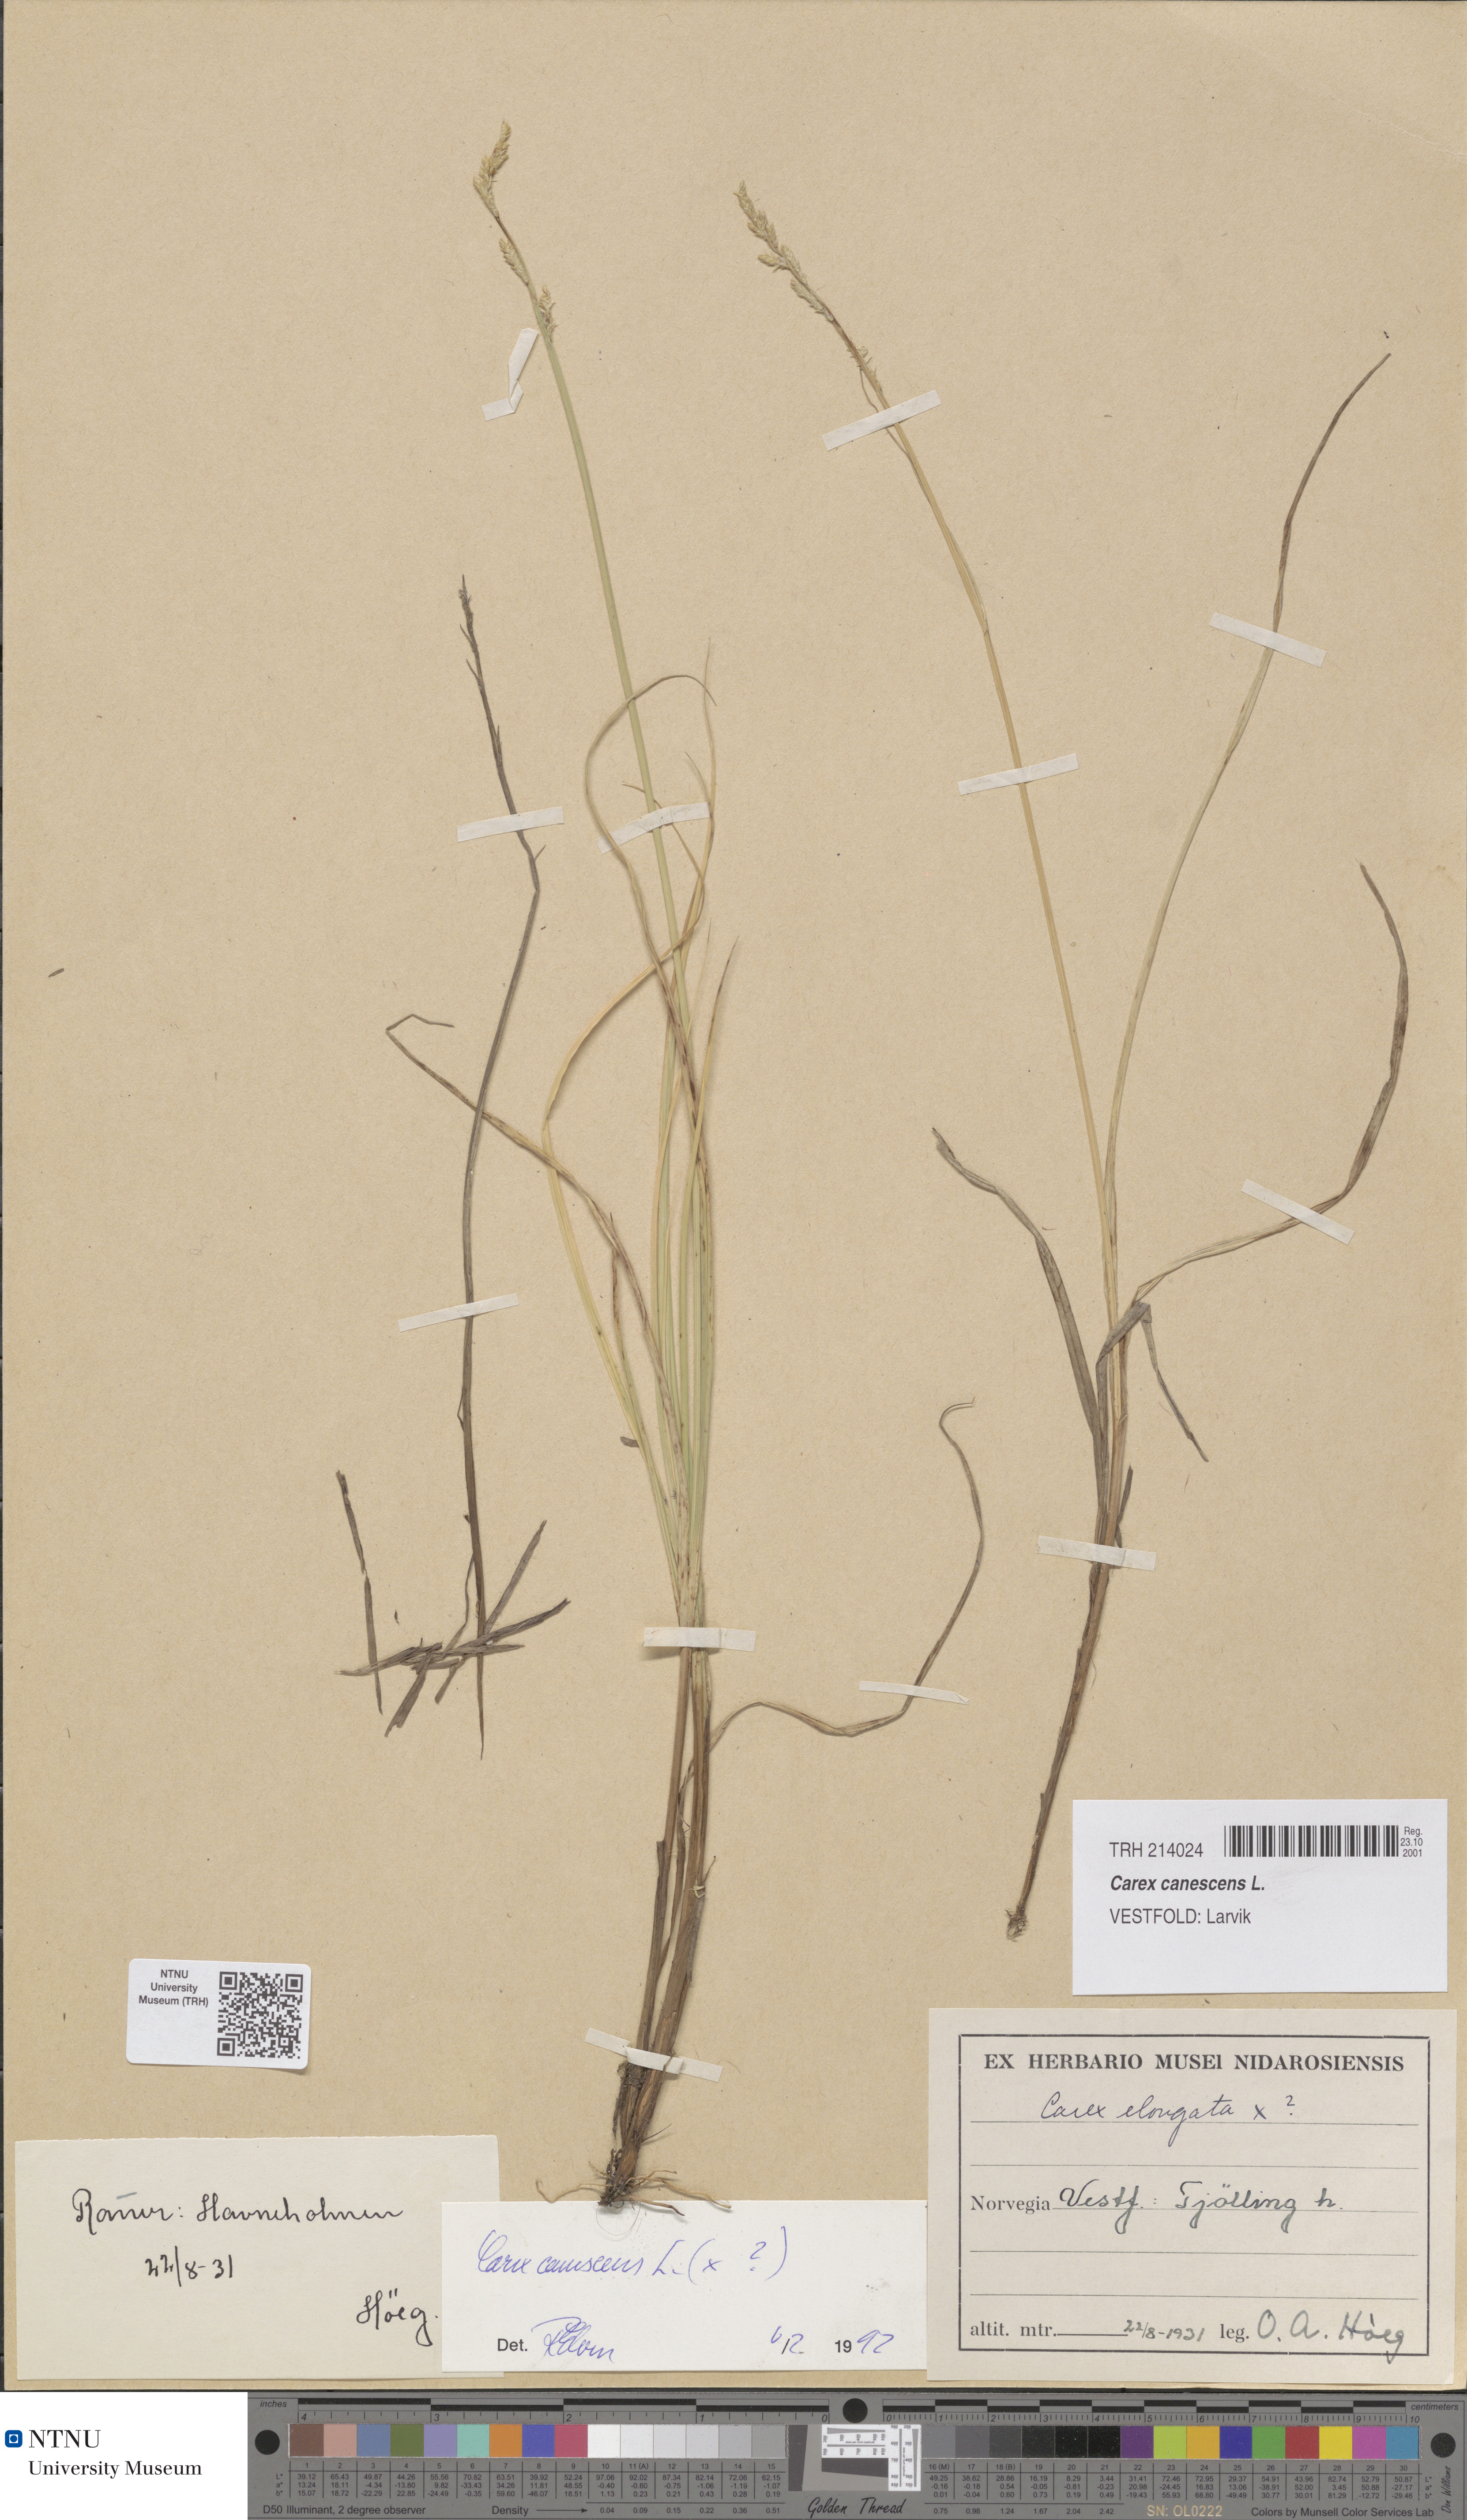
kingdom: Plantae
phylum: Tracheophyta
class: Liliopsida
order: Poales
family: Cyperaceae
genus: Carex
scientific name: Carex canescens
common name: White sedge
